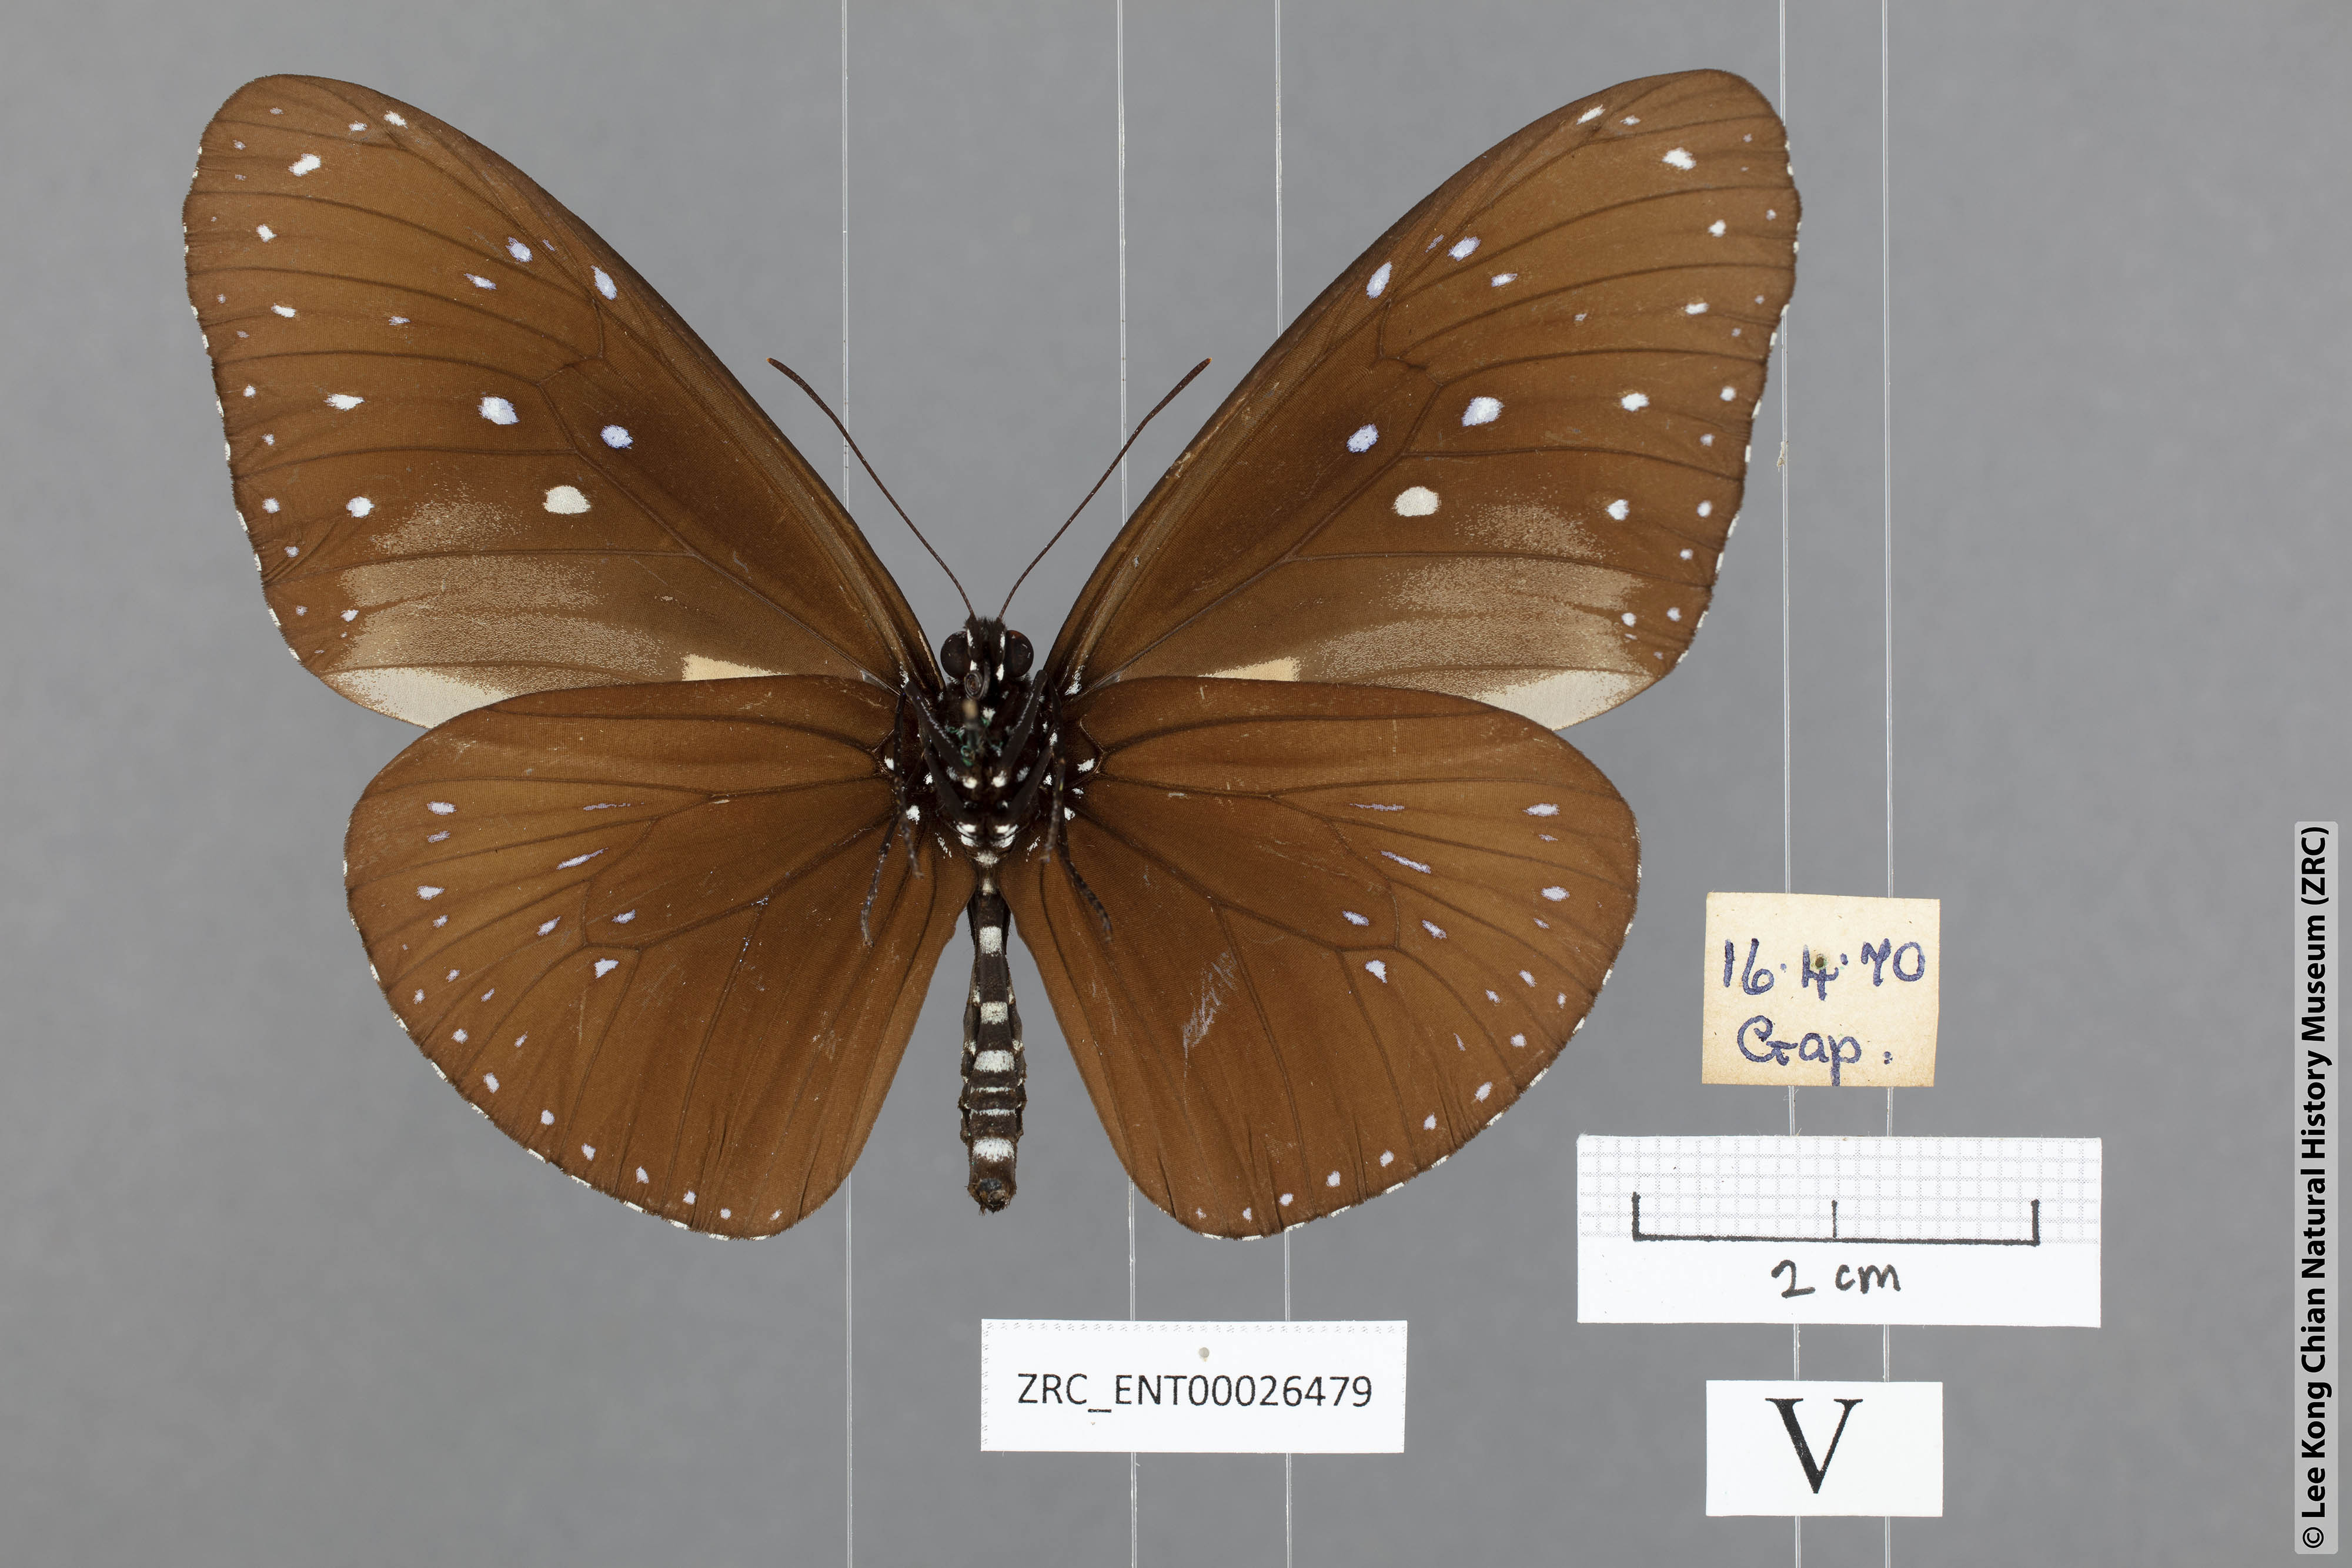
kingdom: Animalia
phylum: Arthropoda
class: Insecta
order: Lepidoptera
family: Nymphalidae
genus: Euploea
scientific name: Euploea mulciber
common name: Striped blue crow butterfly
